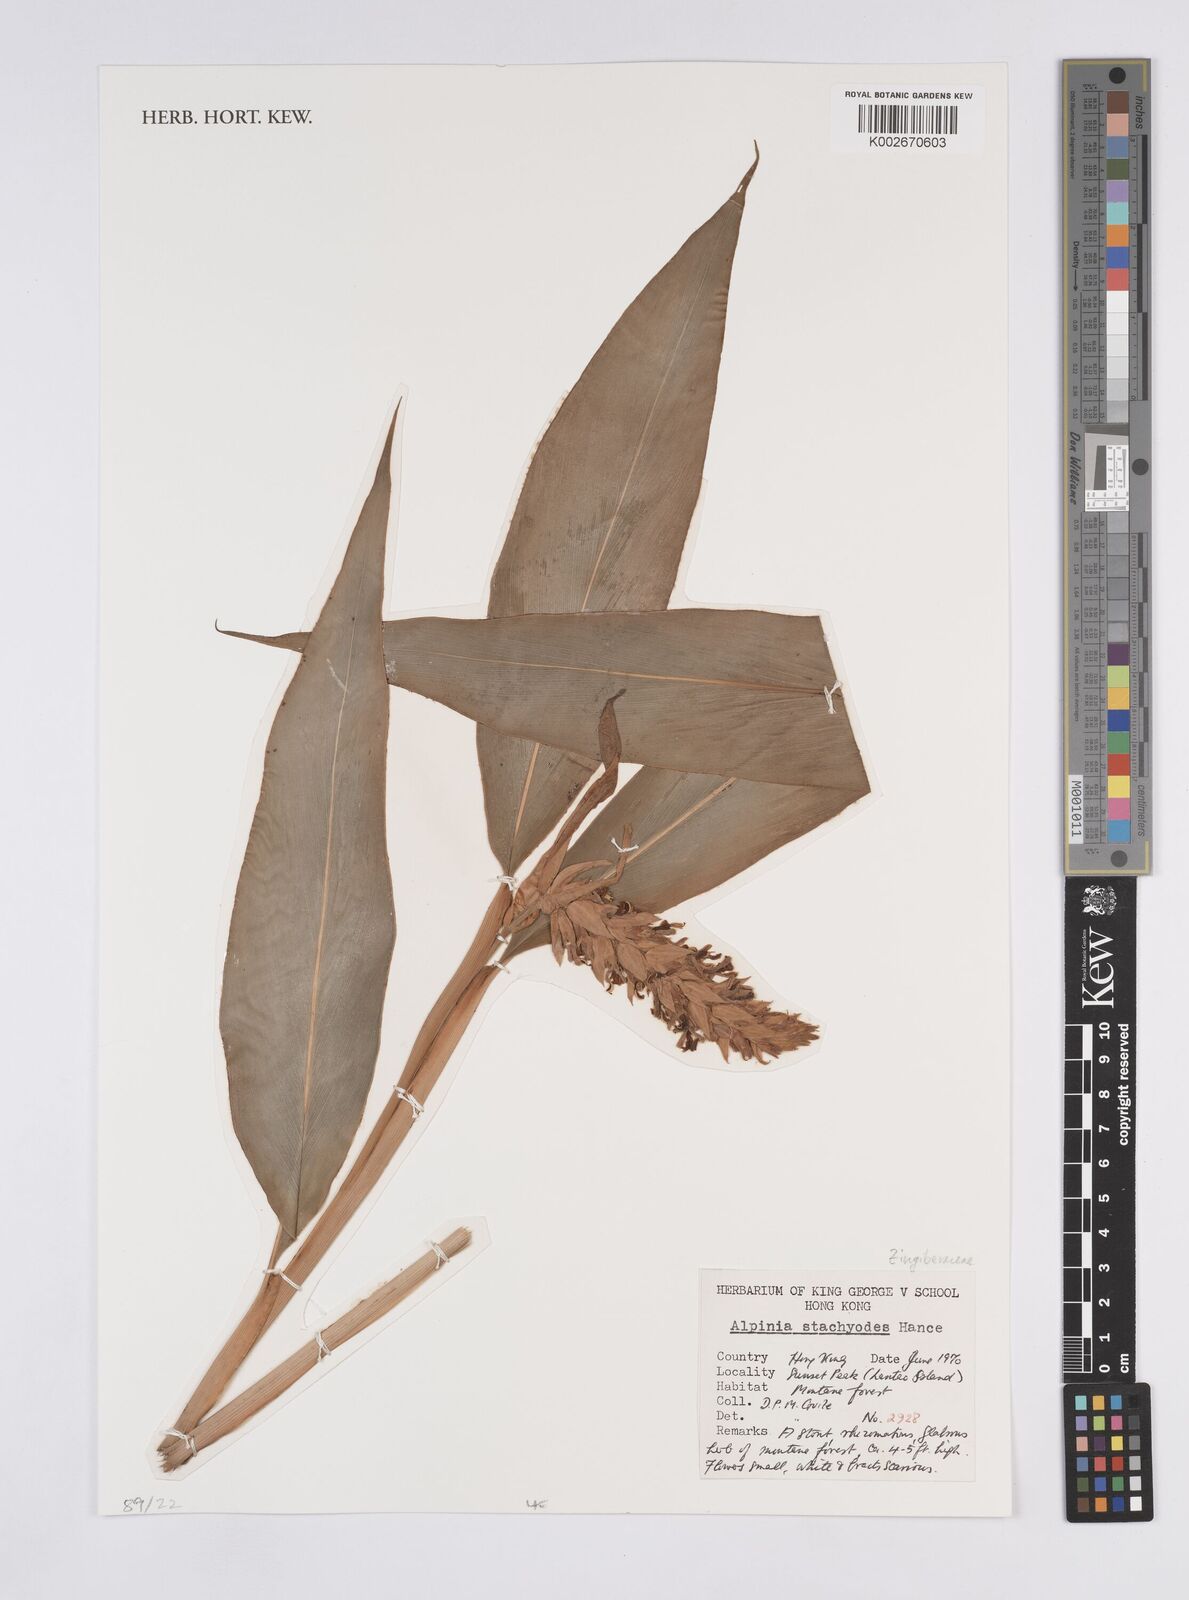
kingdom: Plantae
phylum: Tracheophyta
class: Liliopsida
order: Zingiberales
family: Zingiberaceae
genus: Alpinia
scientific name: Alpinia stachyodes
